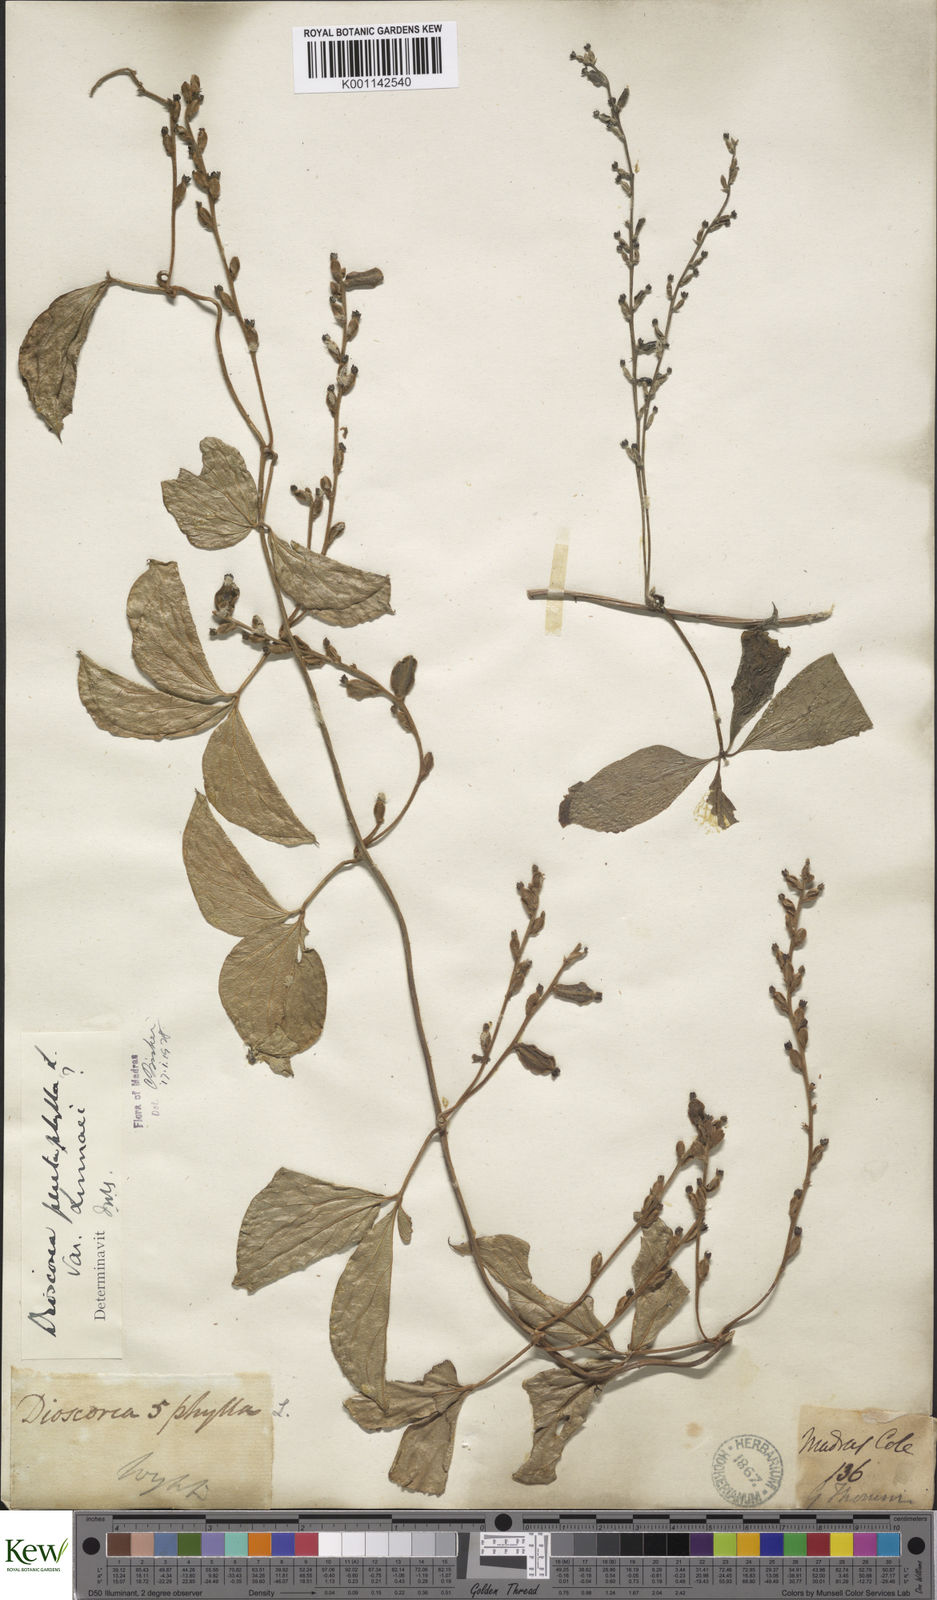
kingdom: Plantae
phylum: Tracheophyta
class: Liliopsida
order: Dioscoreales
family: Dioscoreaceae
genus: Dioscorea
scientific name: Dioscorea pentaphylla
